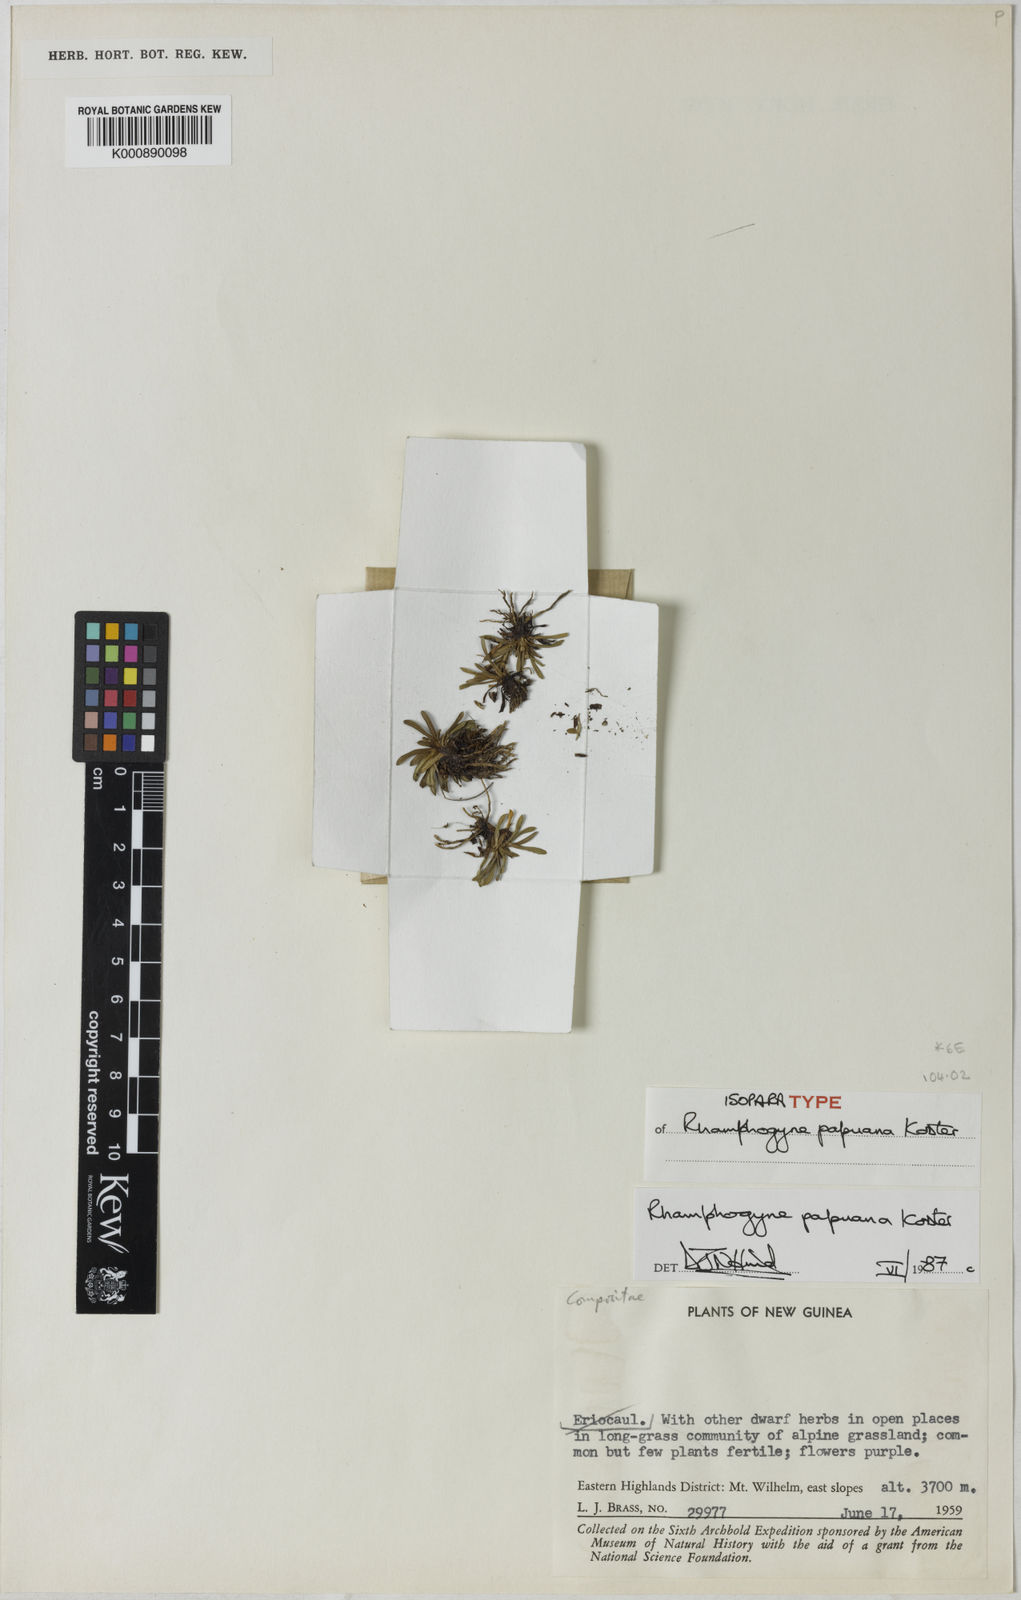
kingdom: Plantae
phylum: Tracheophyta
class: Magnoliopsida
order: Asterales
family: Asteraceae
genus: Lagenocypsela
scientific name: Lagenocypsela papuana
